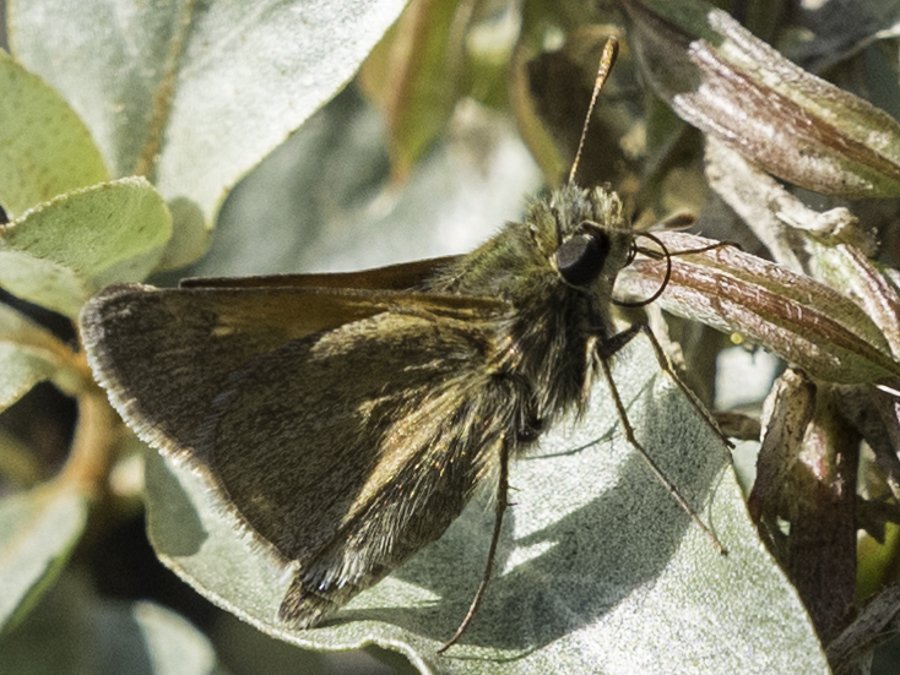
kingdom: Animalia
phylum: Arthropoda
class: Insecta
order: Lepidoptera
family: Hesperiidae
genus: Polites
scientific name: Polites themistocles
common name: Tawny-edged Skipper
